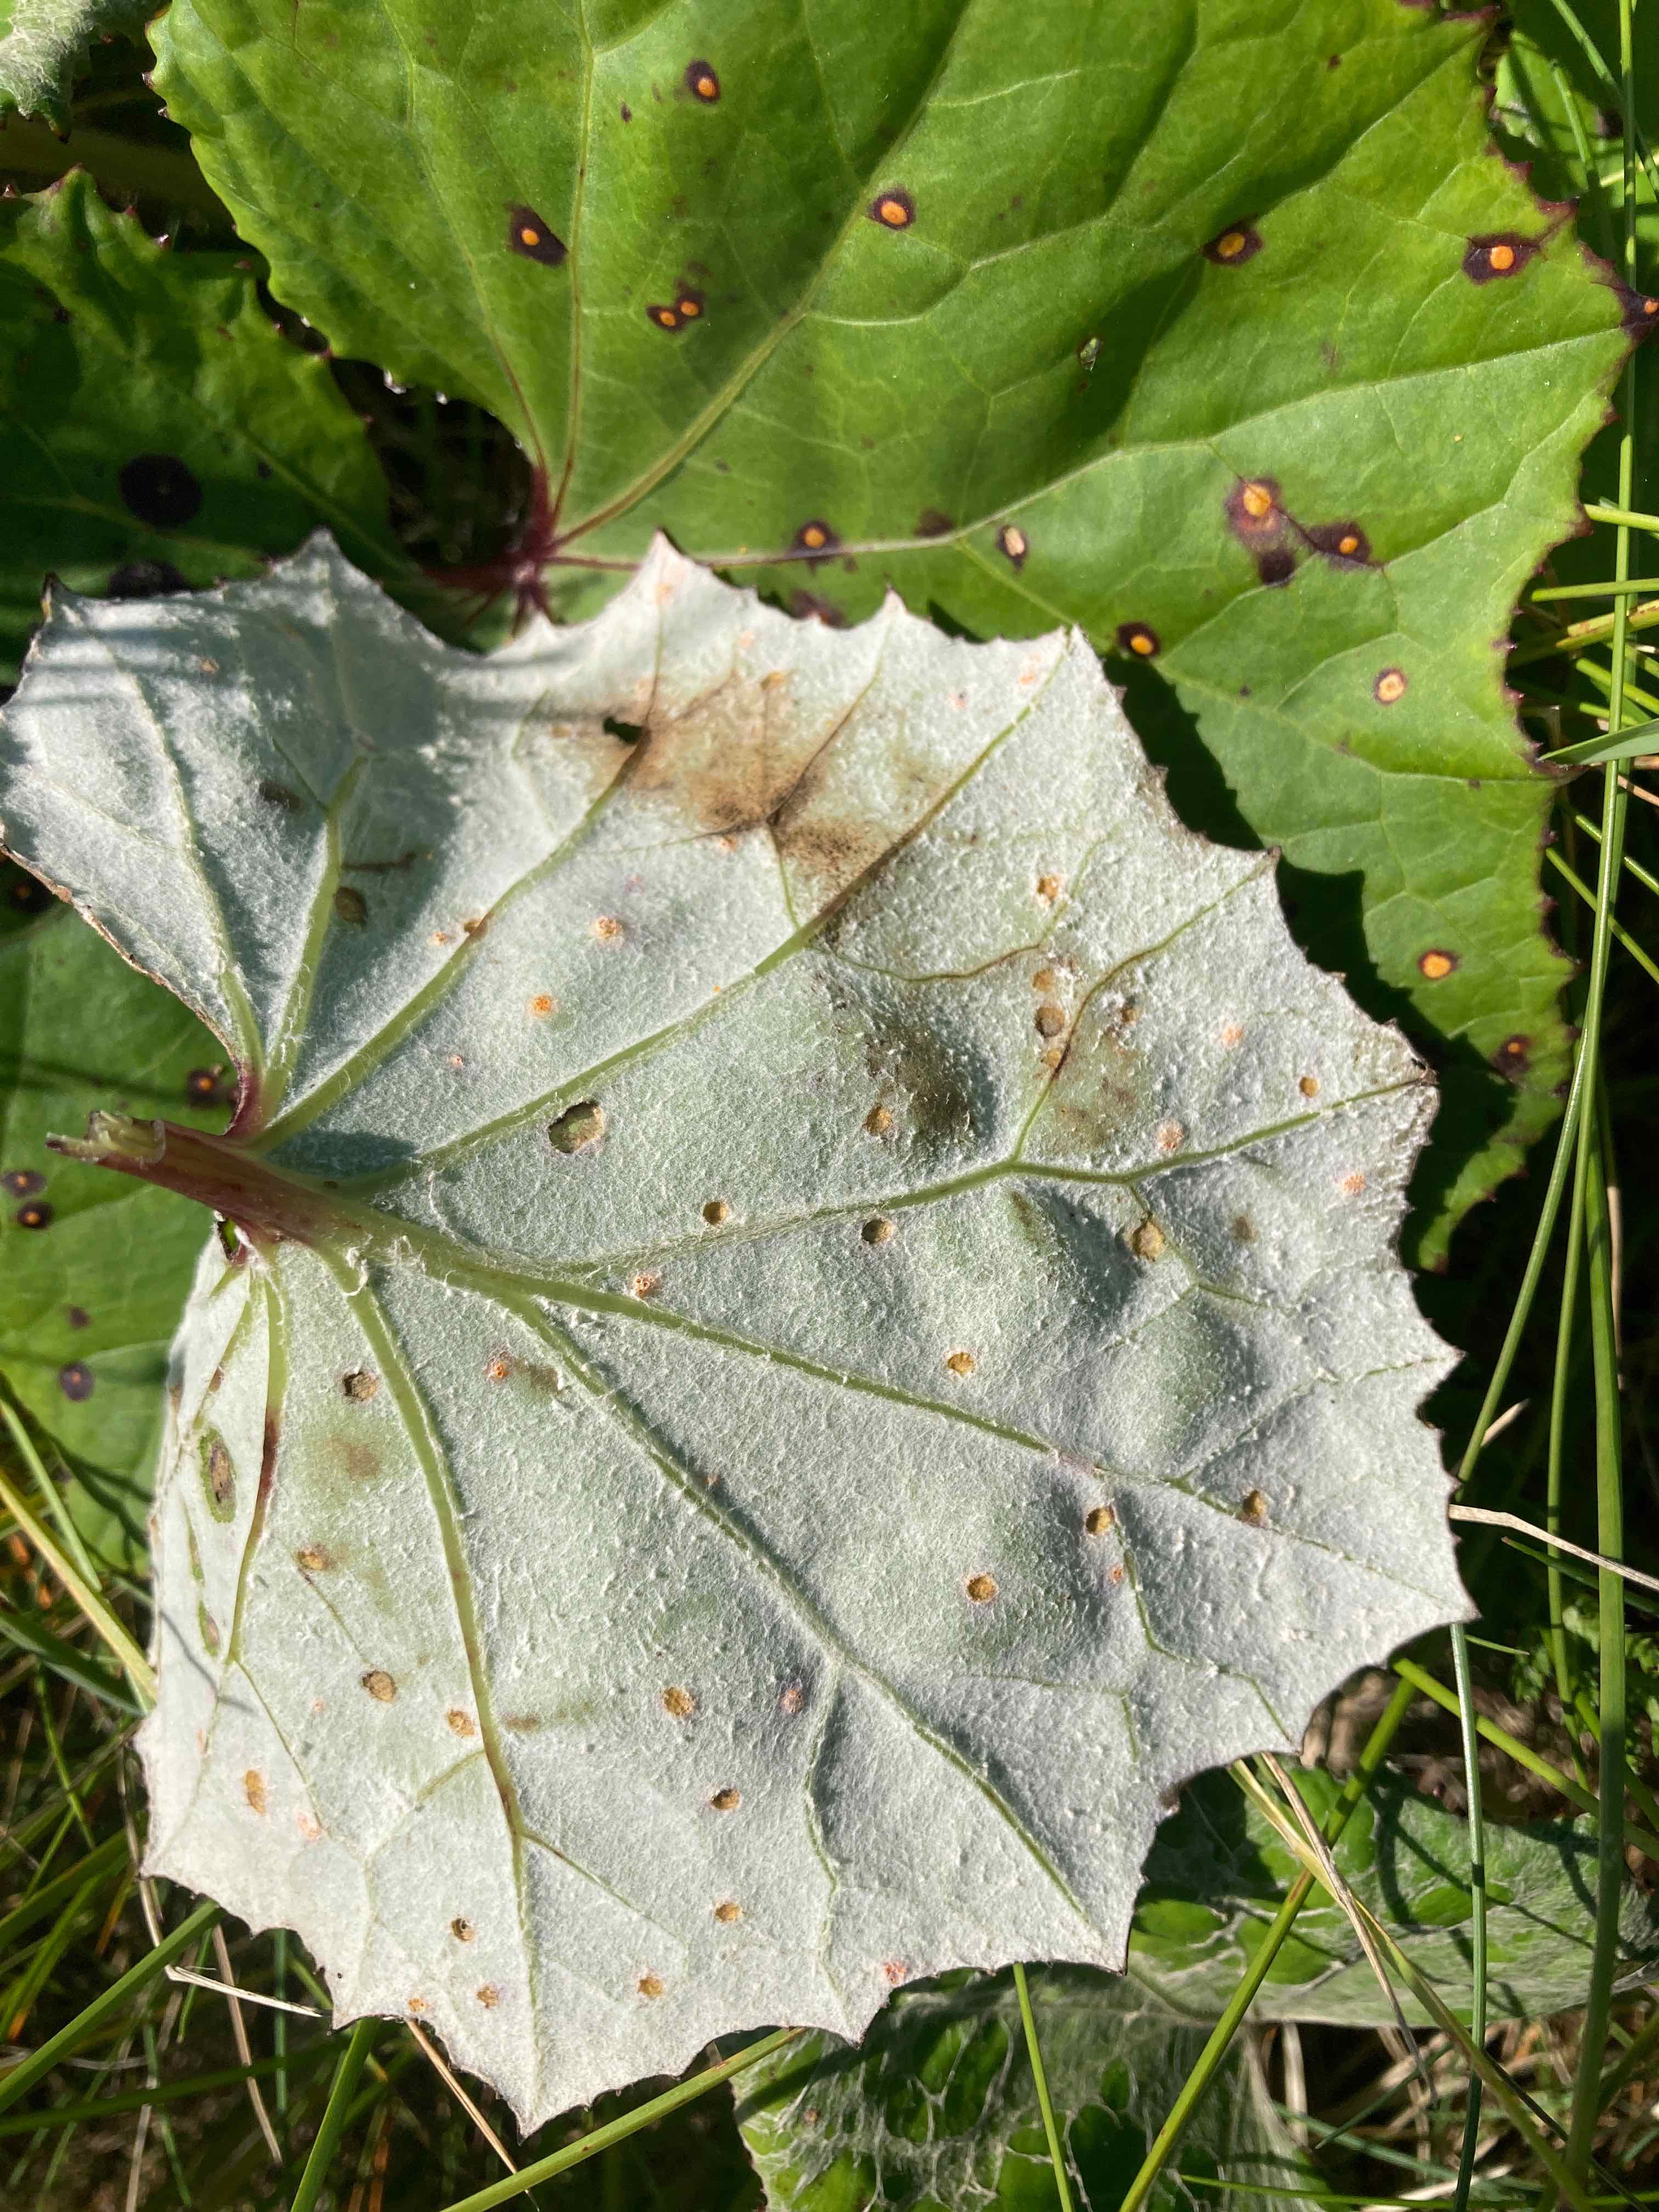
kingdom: Fungi
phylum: Basidiomycota
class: Pucciniomycetes
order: Pucciniales
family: Pucciniaceae
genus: Puccinia
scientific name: Puccinia poarum
